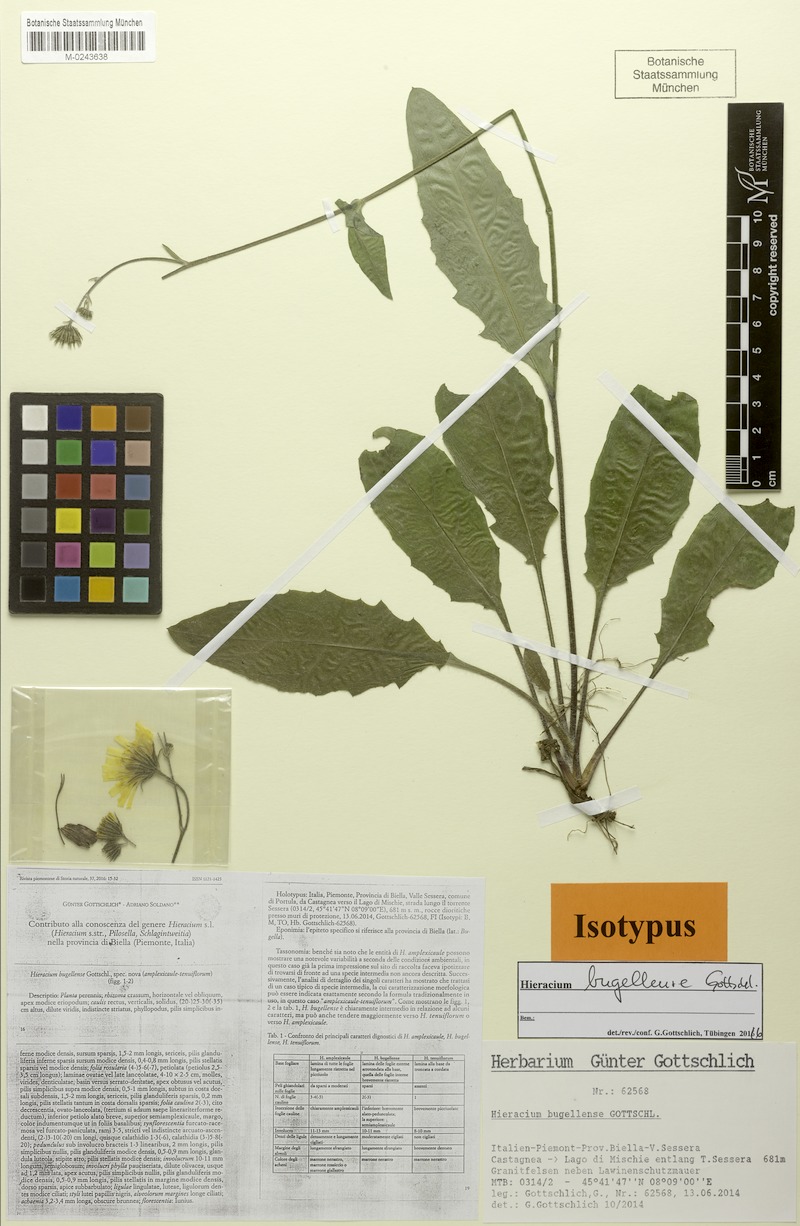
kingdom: Plantae
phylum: Tracheophyta
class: Magnoliopsida
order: Asterales
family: Asteraceae
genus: Hieracium
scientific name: Hieracium bugellense
